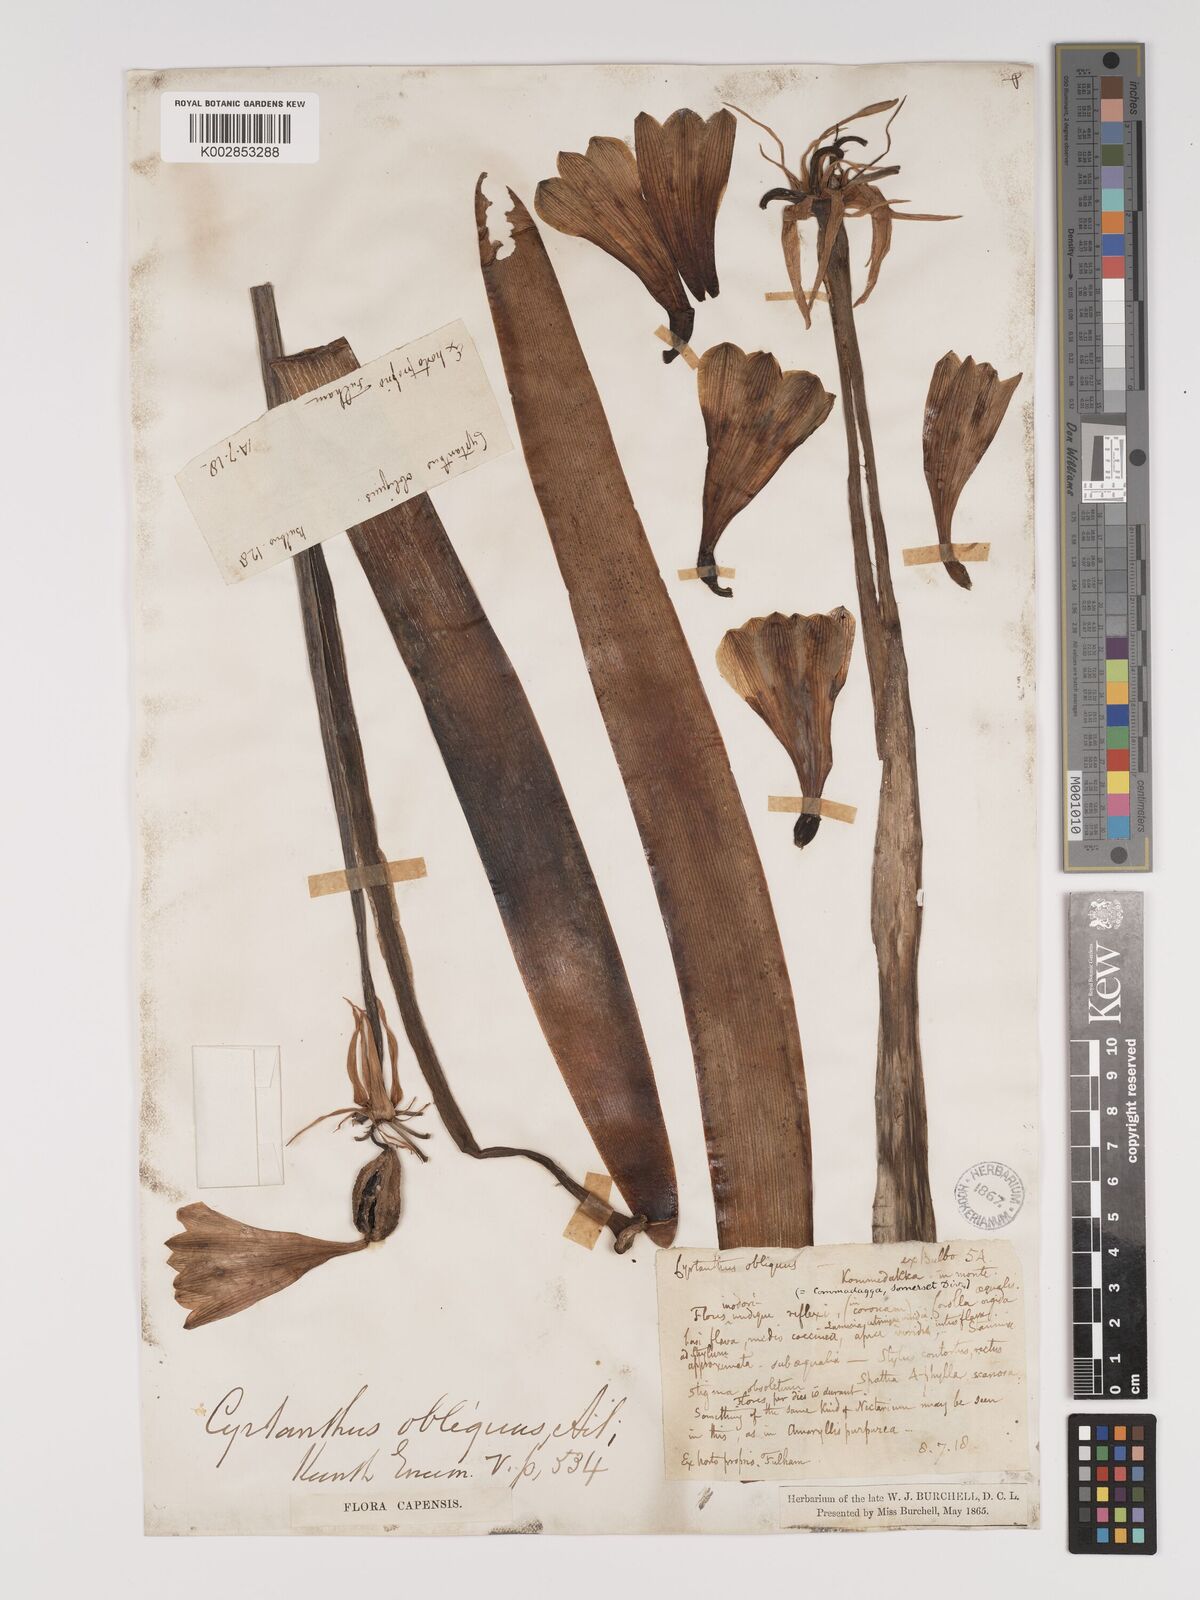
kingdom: Plantae
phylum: Tracheophyta
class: Liliopsida
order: Asparagales
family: Amaryllidaceae
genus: Cyrtanthus
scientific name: Cyrtanthus obliquus
